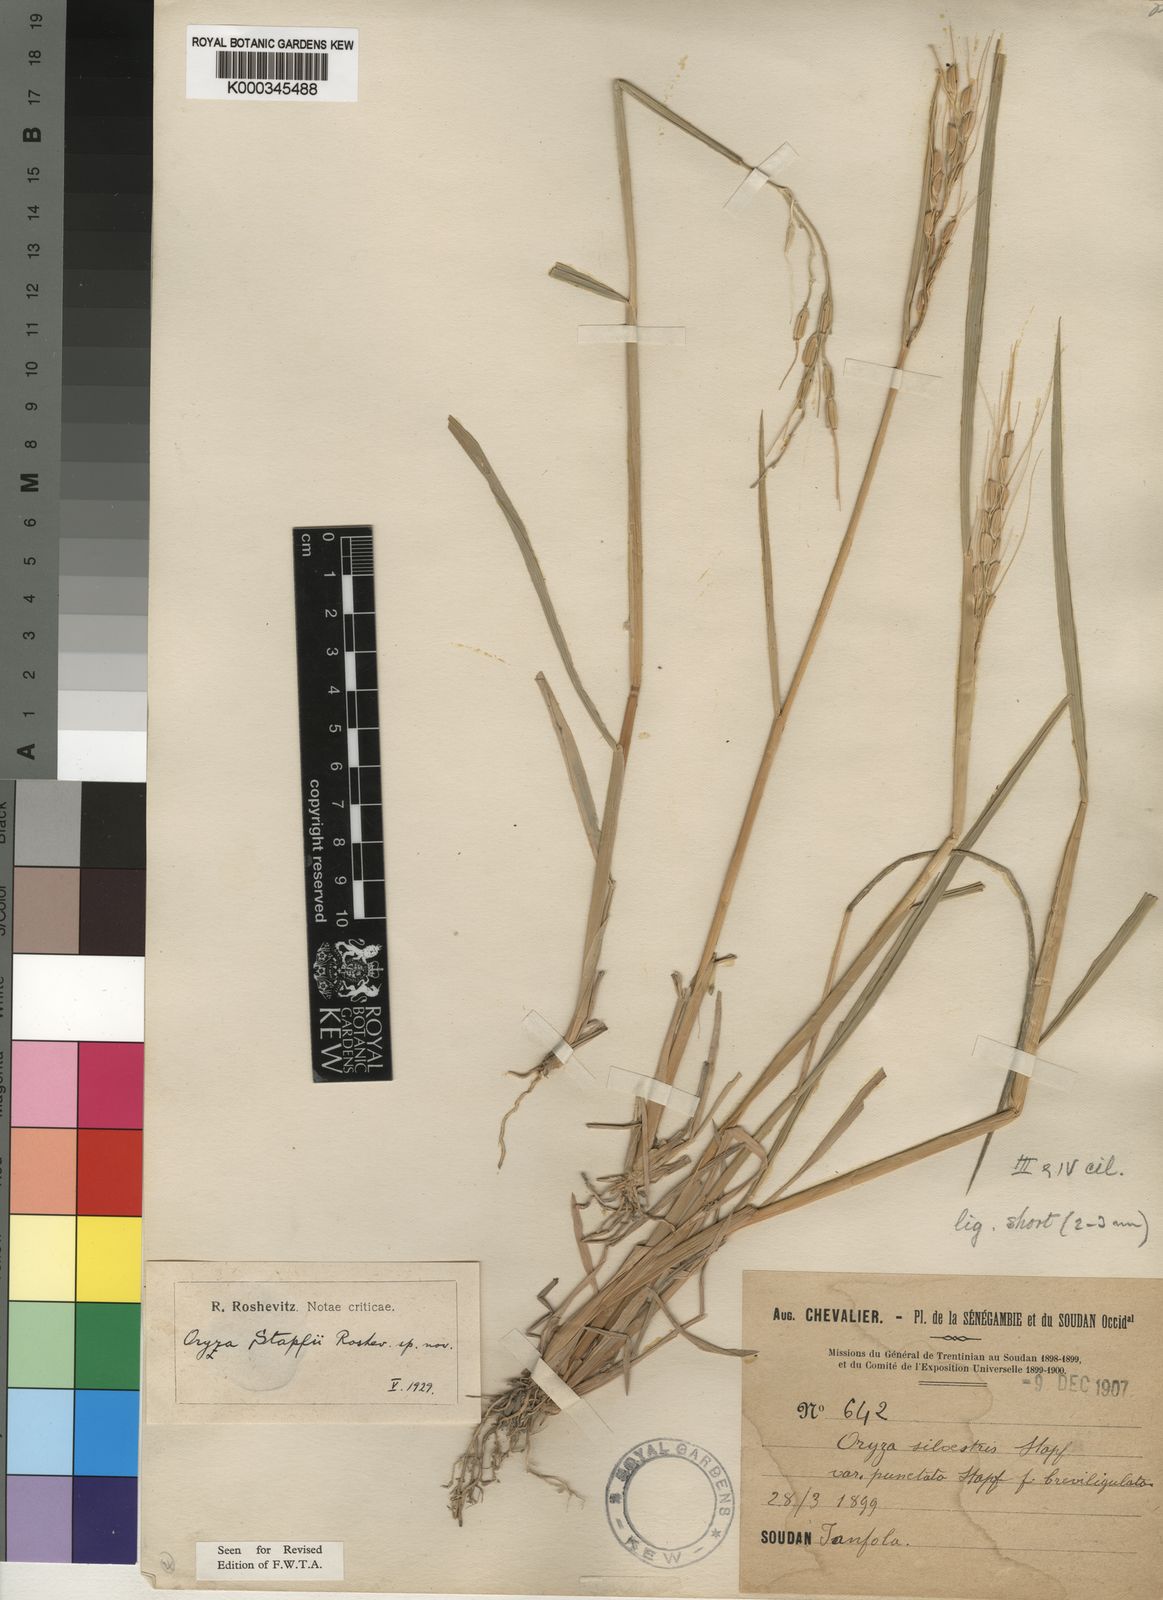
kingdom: Plantae
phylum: Tracheophyta
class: Liliopsida
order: Poales
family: Poaceae
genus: Oryza
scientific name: Oryza barthii
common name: Wild rice
